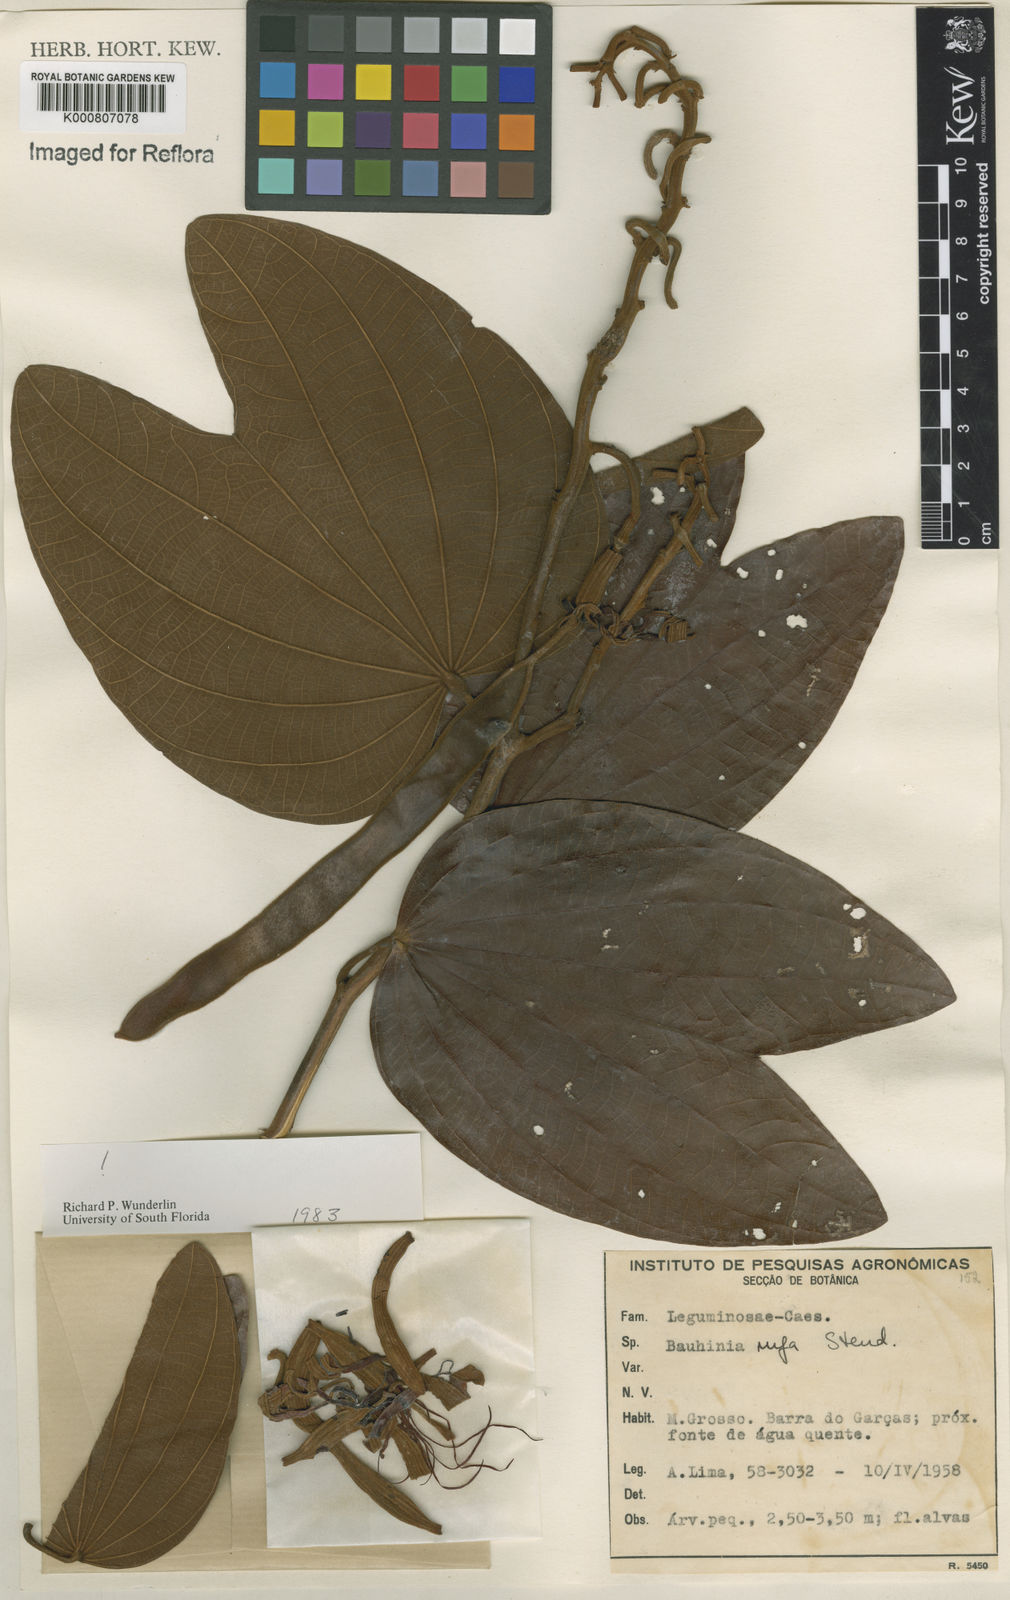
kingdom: Plantae
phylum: Tracheophyta
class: Magnoliopsida
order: Fabales
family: Fabaceae
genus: Bauhinia
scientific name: Bauhinia rufa
